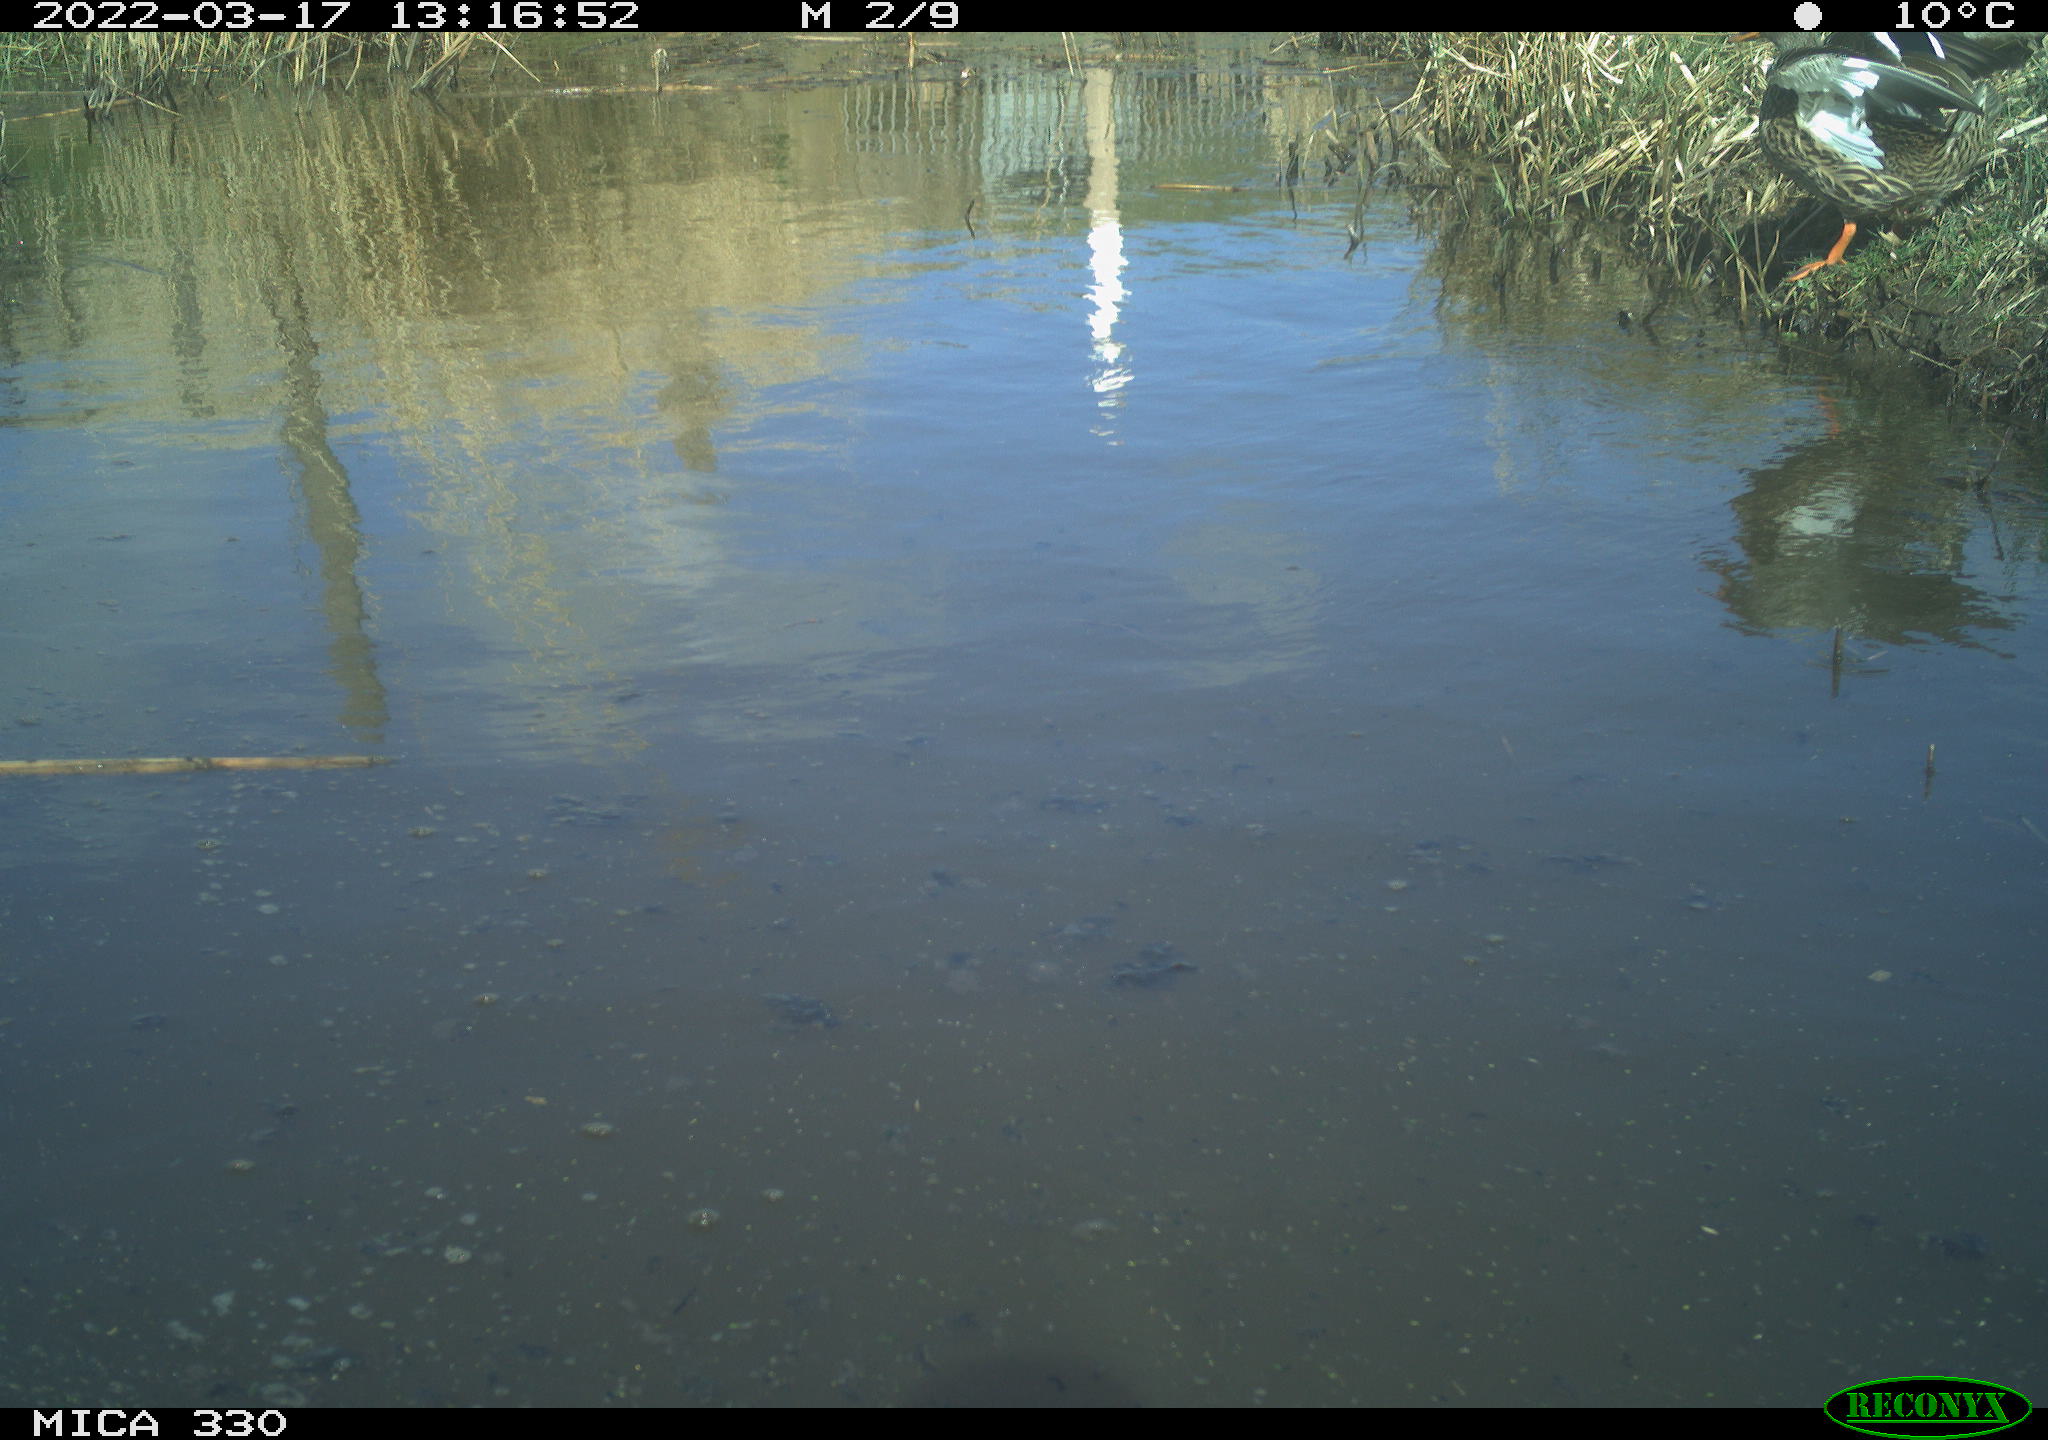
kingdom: Animalia
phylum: Chordata
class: Aves
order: Anseriformes
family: Anatidae
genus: Anas
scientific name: Anas platyrhynchos
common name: Mallard
